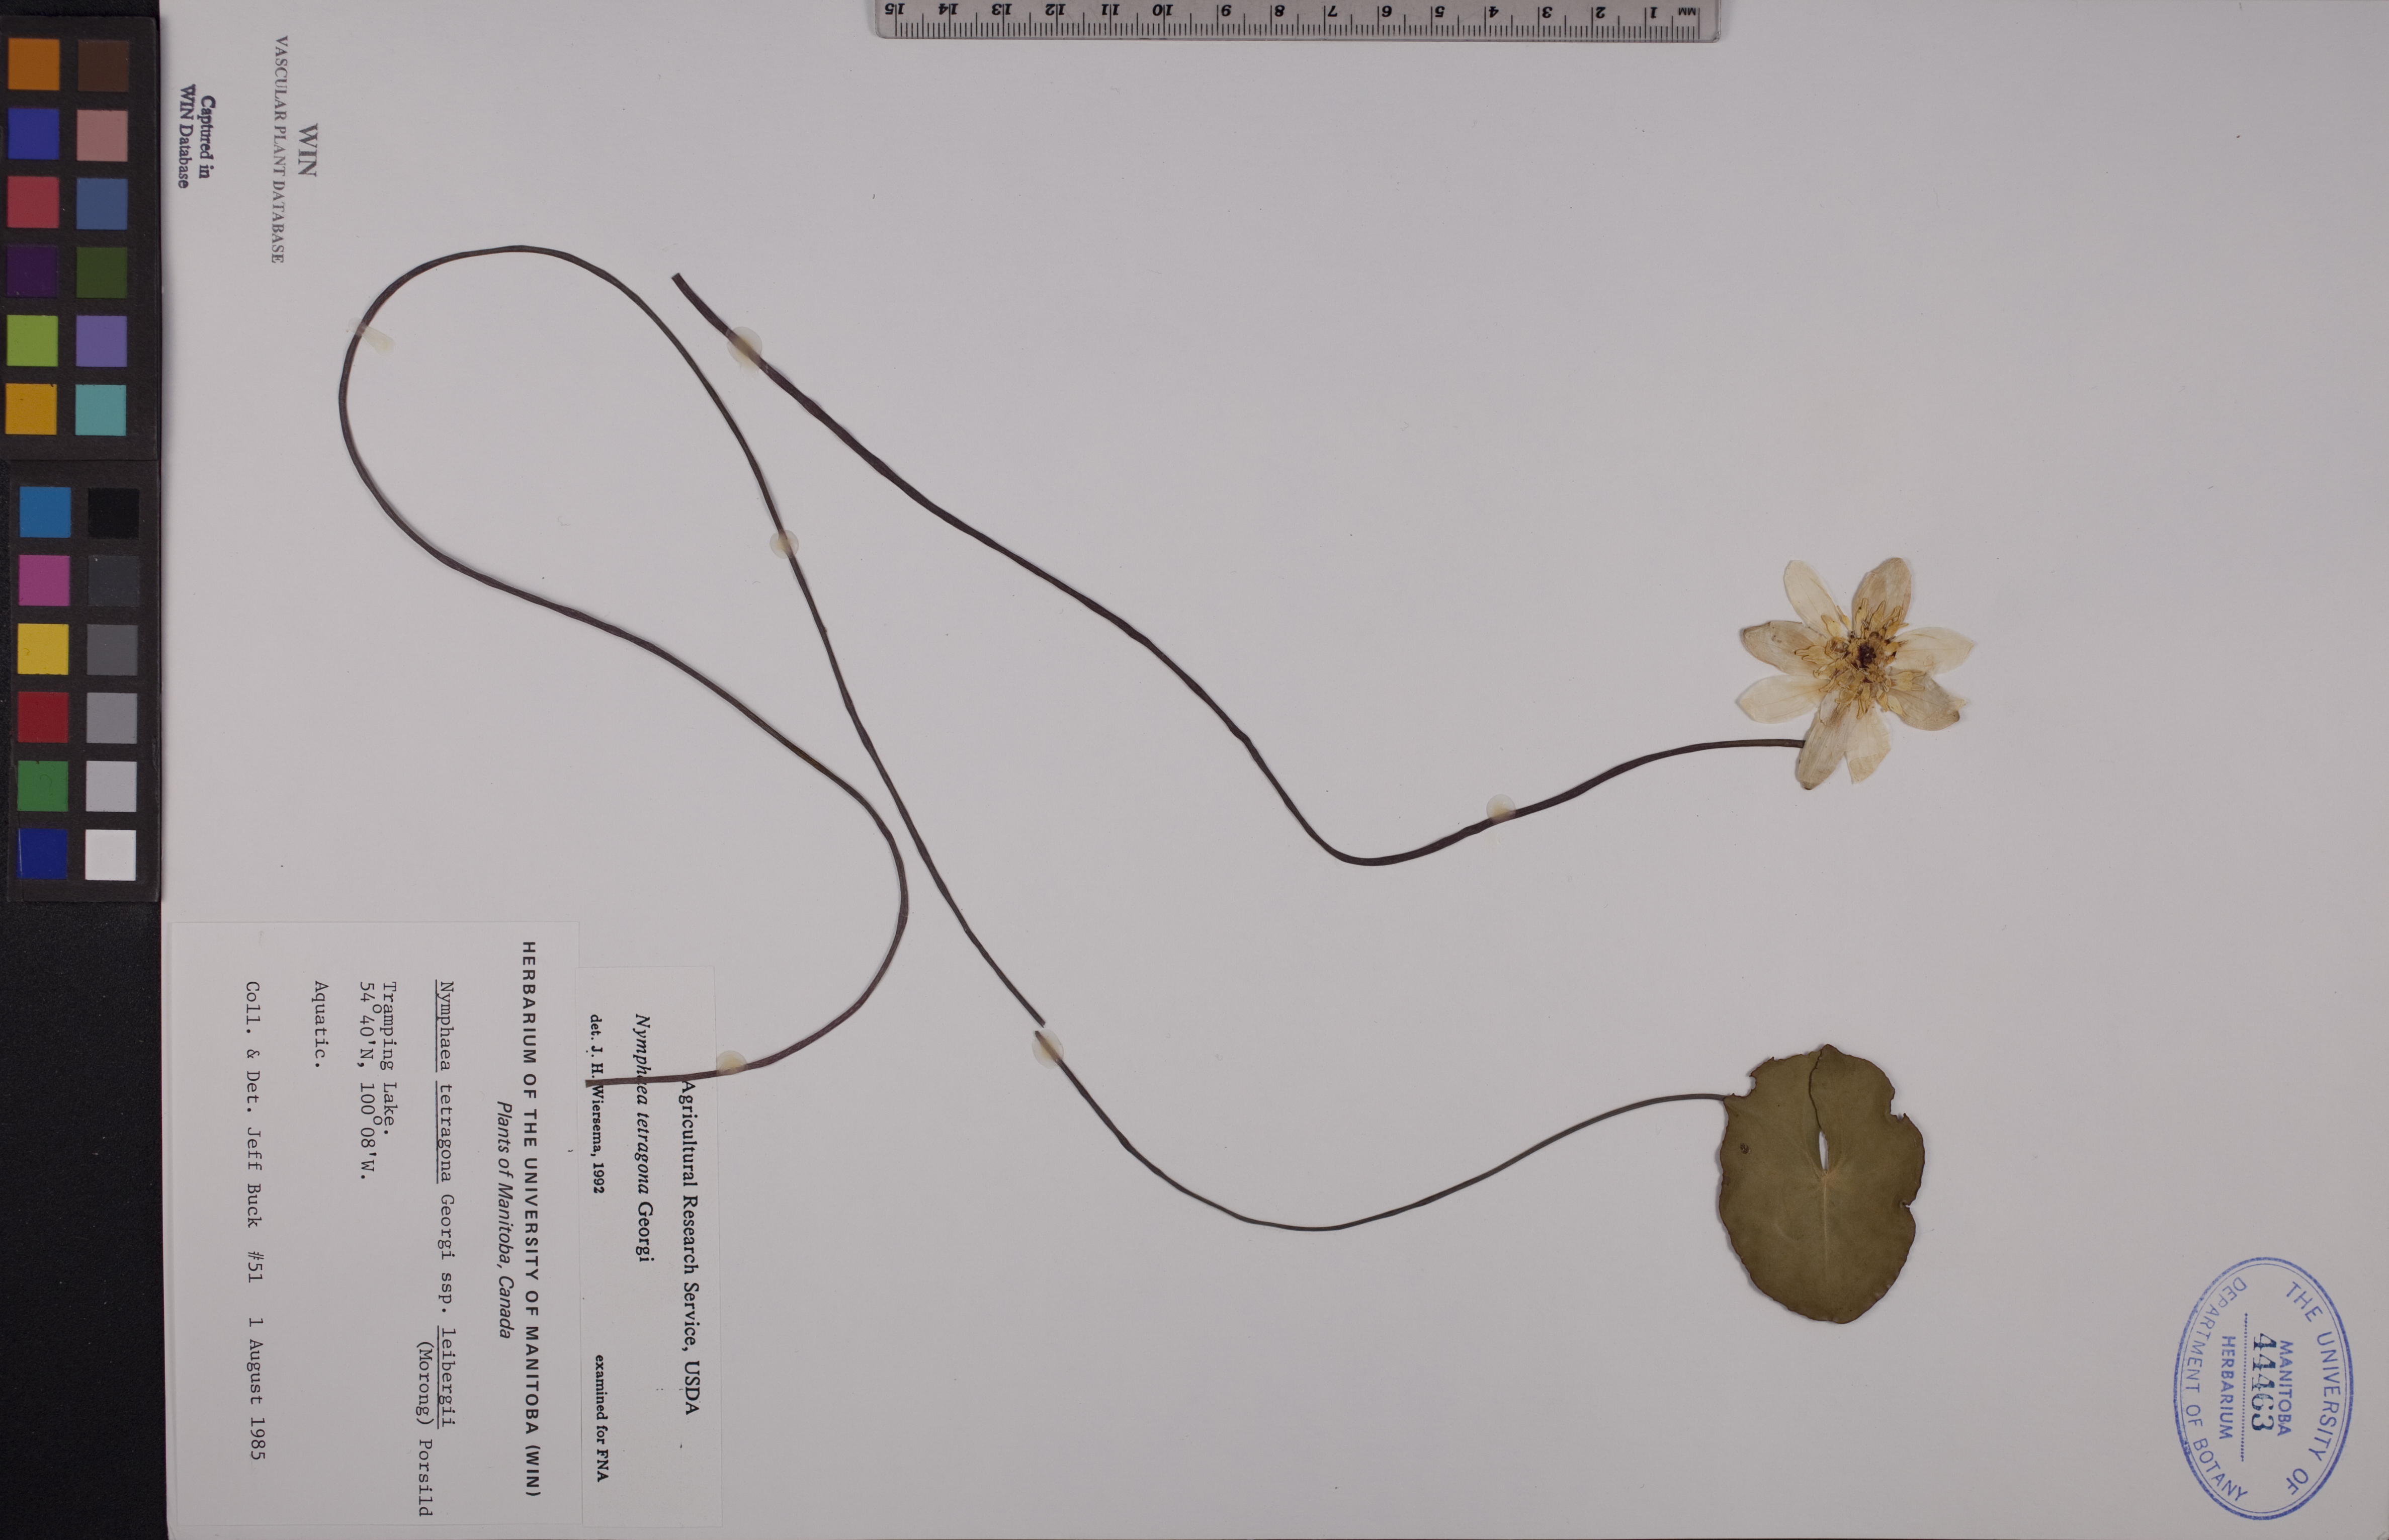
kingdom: Plantae
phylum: Tracheophyta
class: Magnoliopsida
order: Nymphaeales
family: Nymphaeaceae
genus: Nymphaea
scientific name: Nymphaea tetragona
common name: Pygmy water-lily
